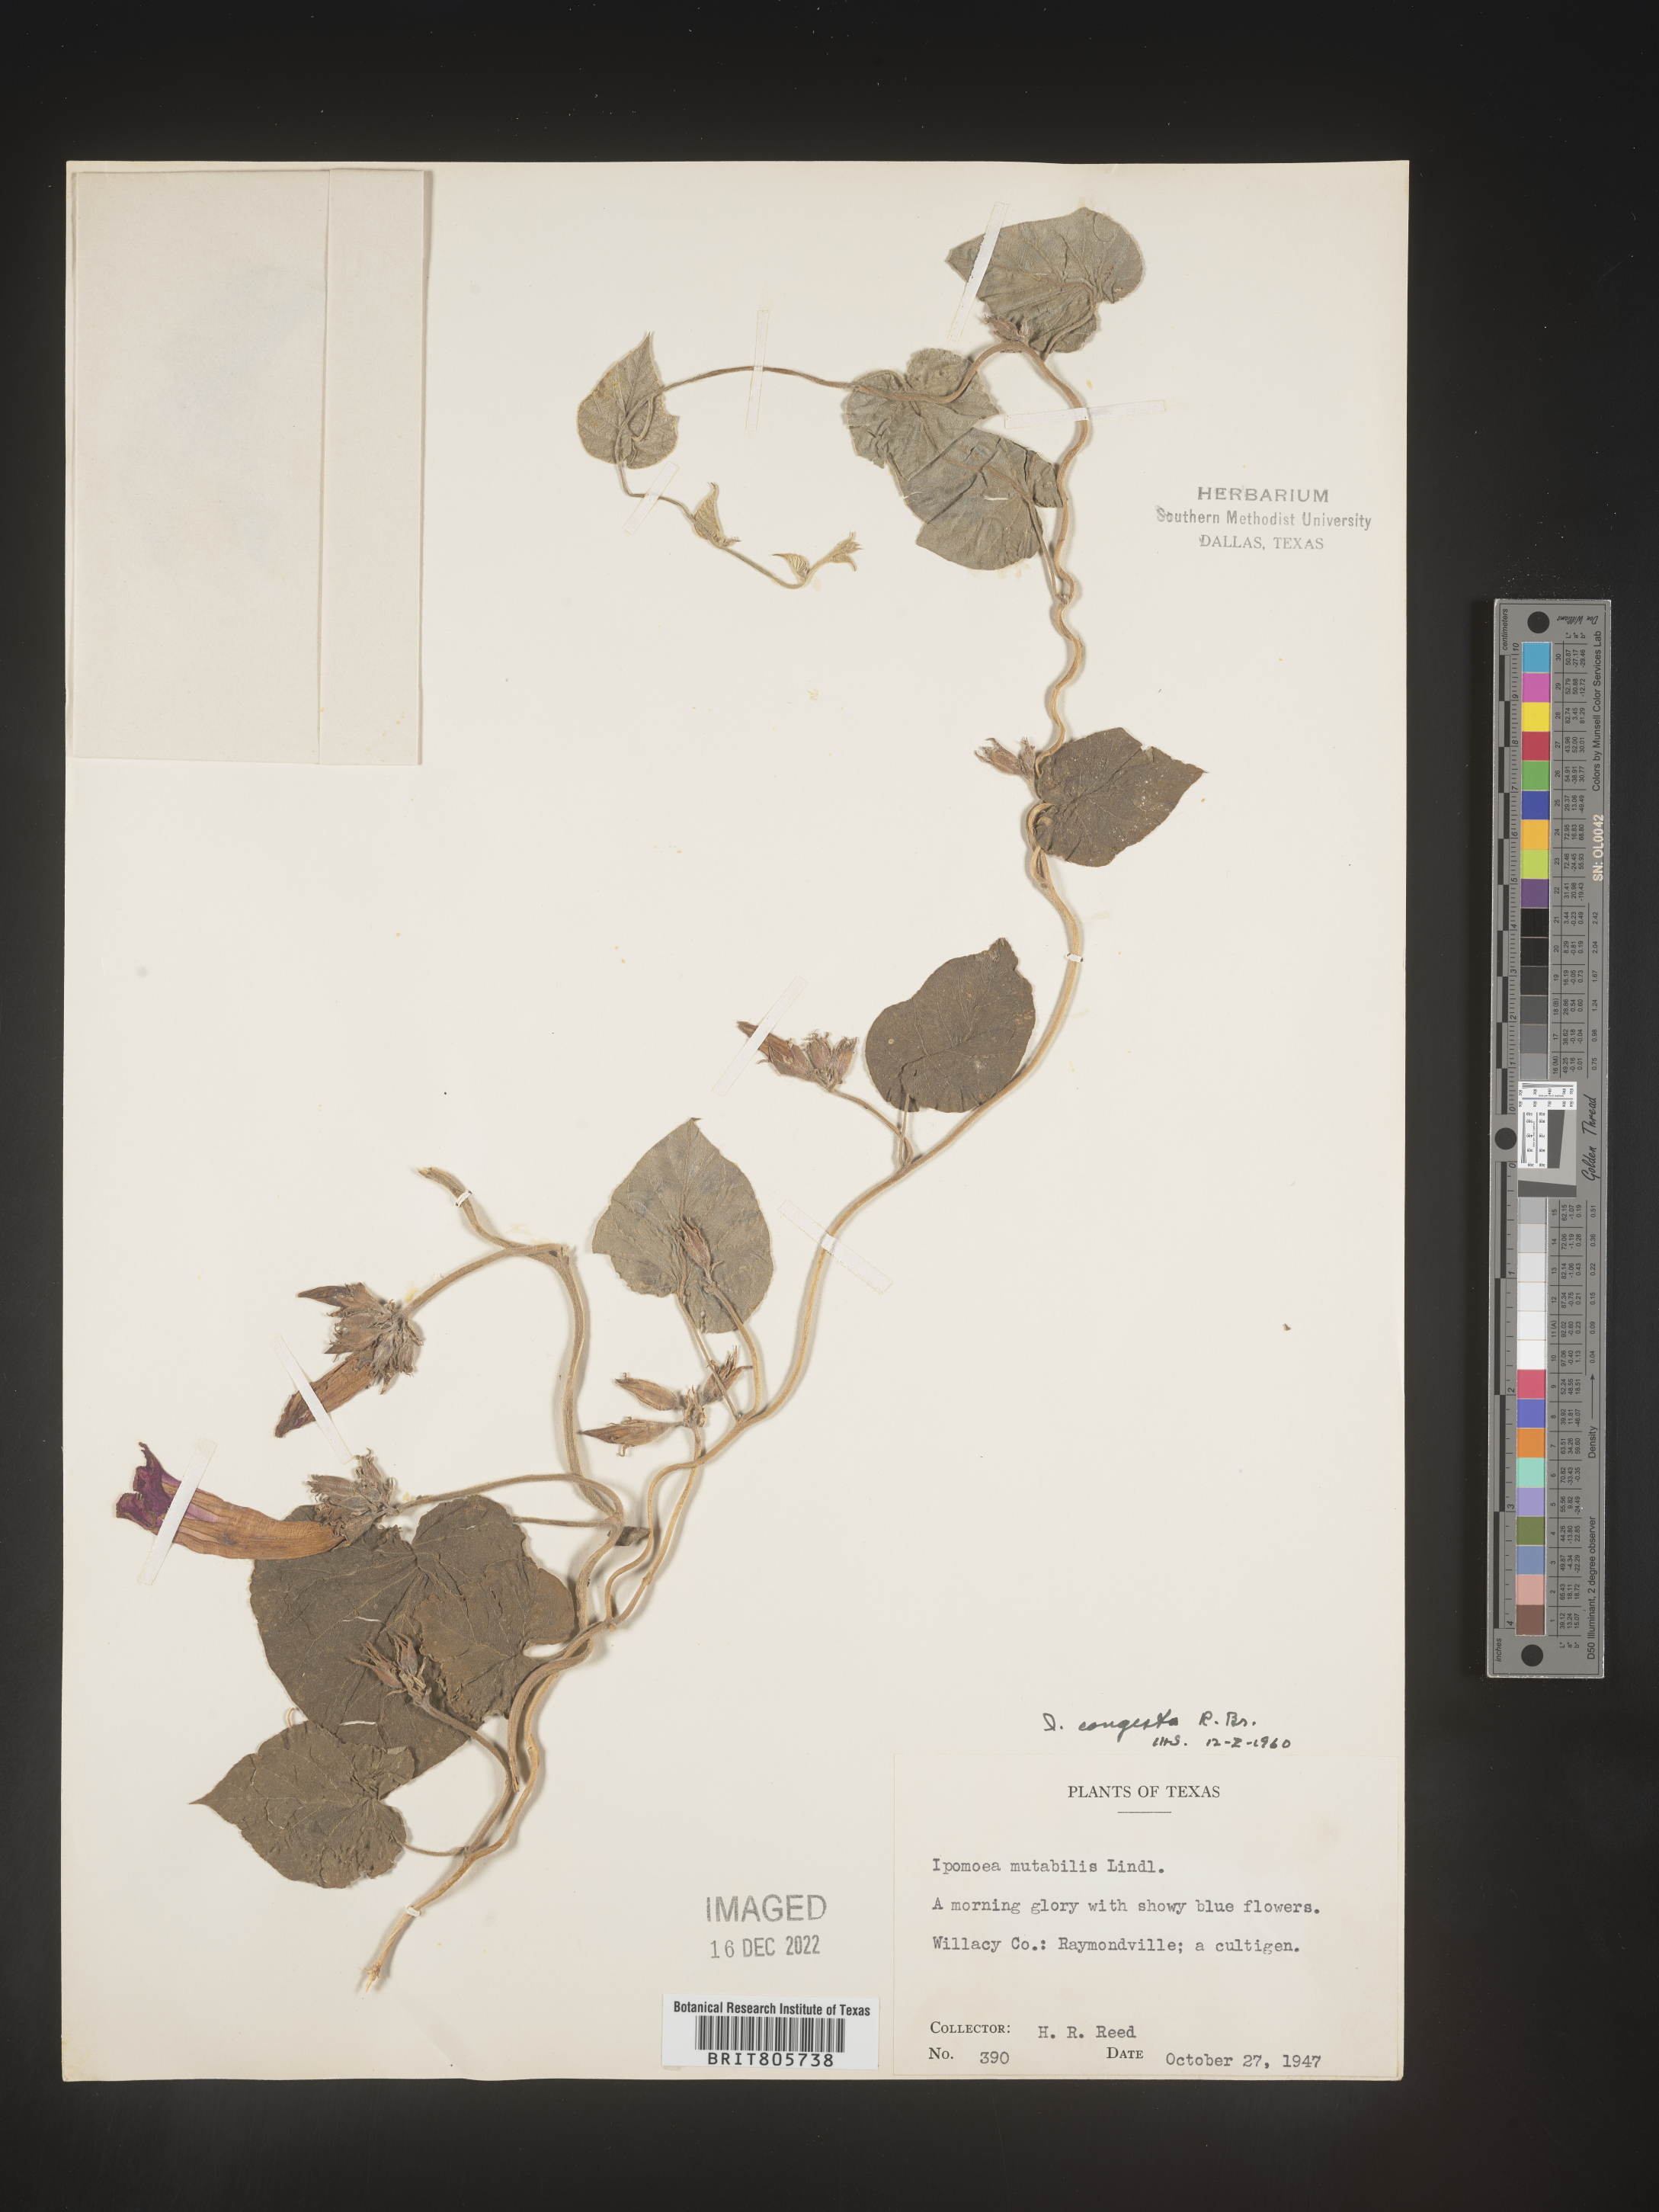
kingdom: Plantae
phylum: Tracheophyta
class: Magnoliopsida
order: Solanales
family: Convolvulaceae
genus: Ipomoea
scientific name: Ipomoea coccinea
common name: Red morning-glory
